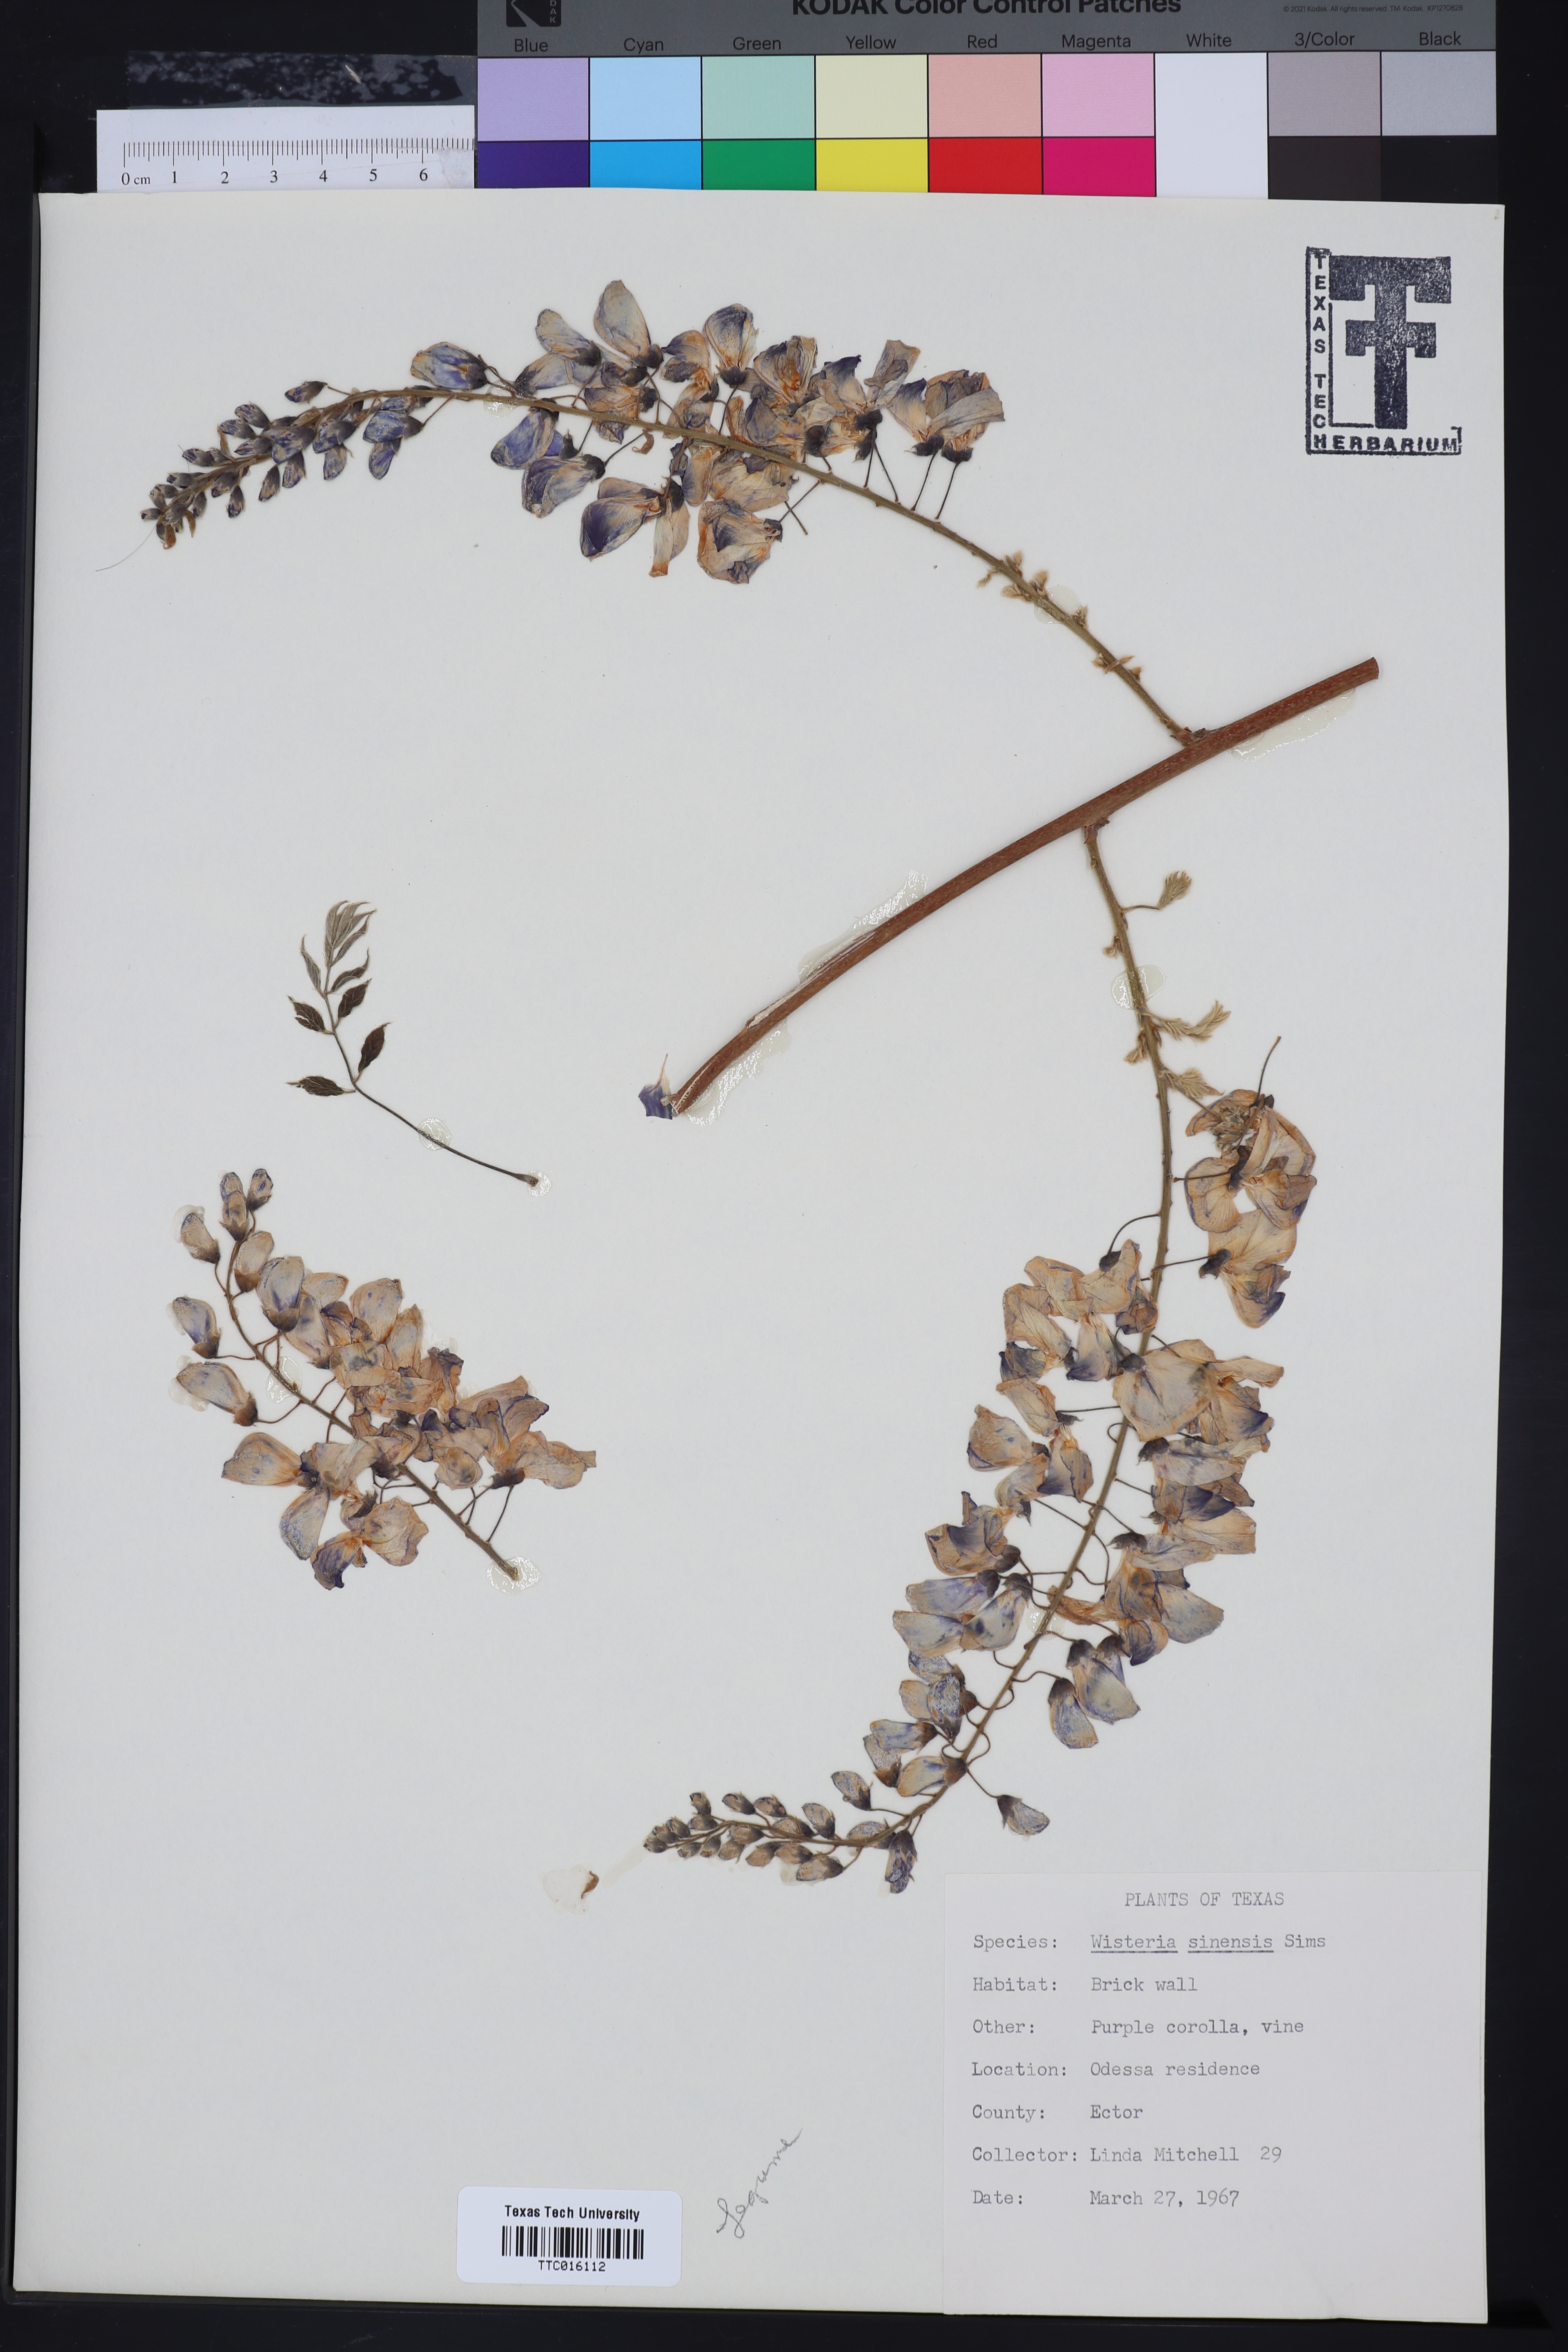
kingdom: Plantae
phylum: Tracheophyta
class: Magnoliopsida
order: Fabales
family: Fabaceae
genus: Wisteria
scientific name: Wisteria sinensis
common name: Chinese wisteria
